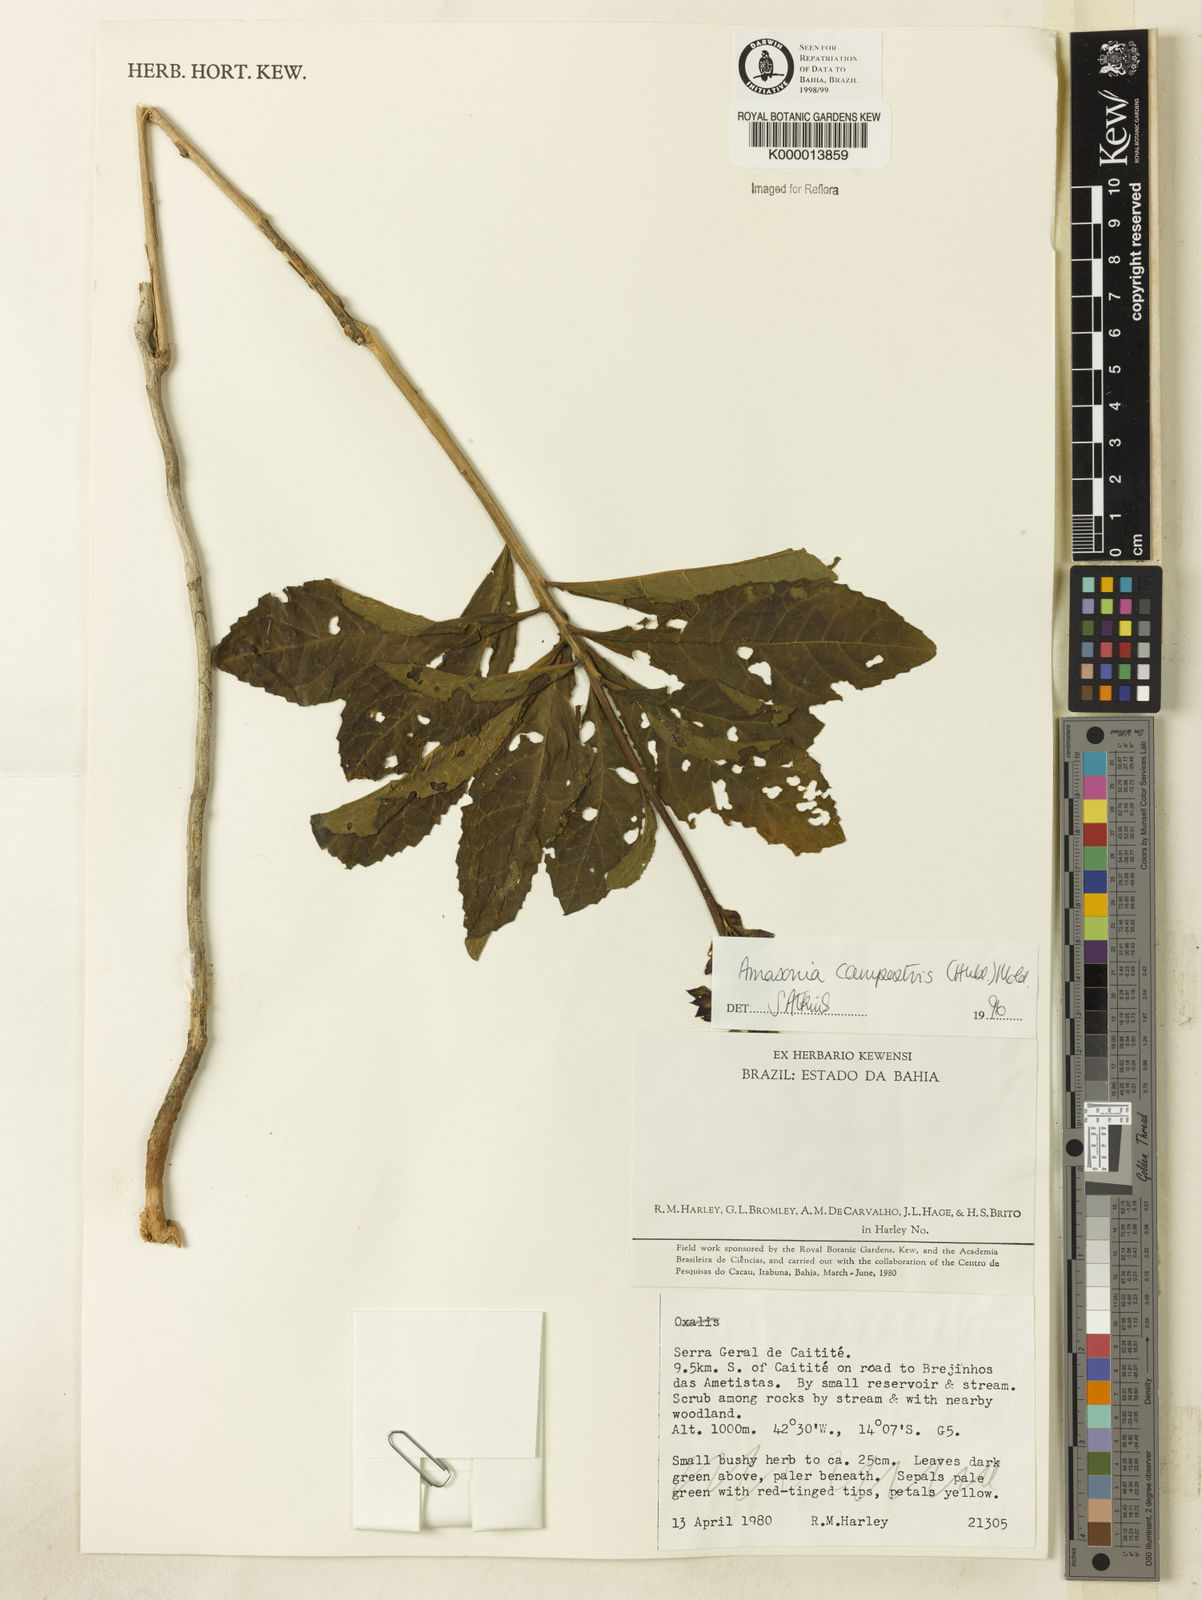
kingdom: Plantae
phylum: Tracheophyta
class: Magnoliopsida
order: Lamiales
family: Lamiaceae
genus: Amasonia
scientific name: Amasonia campestris
